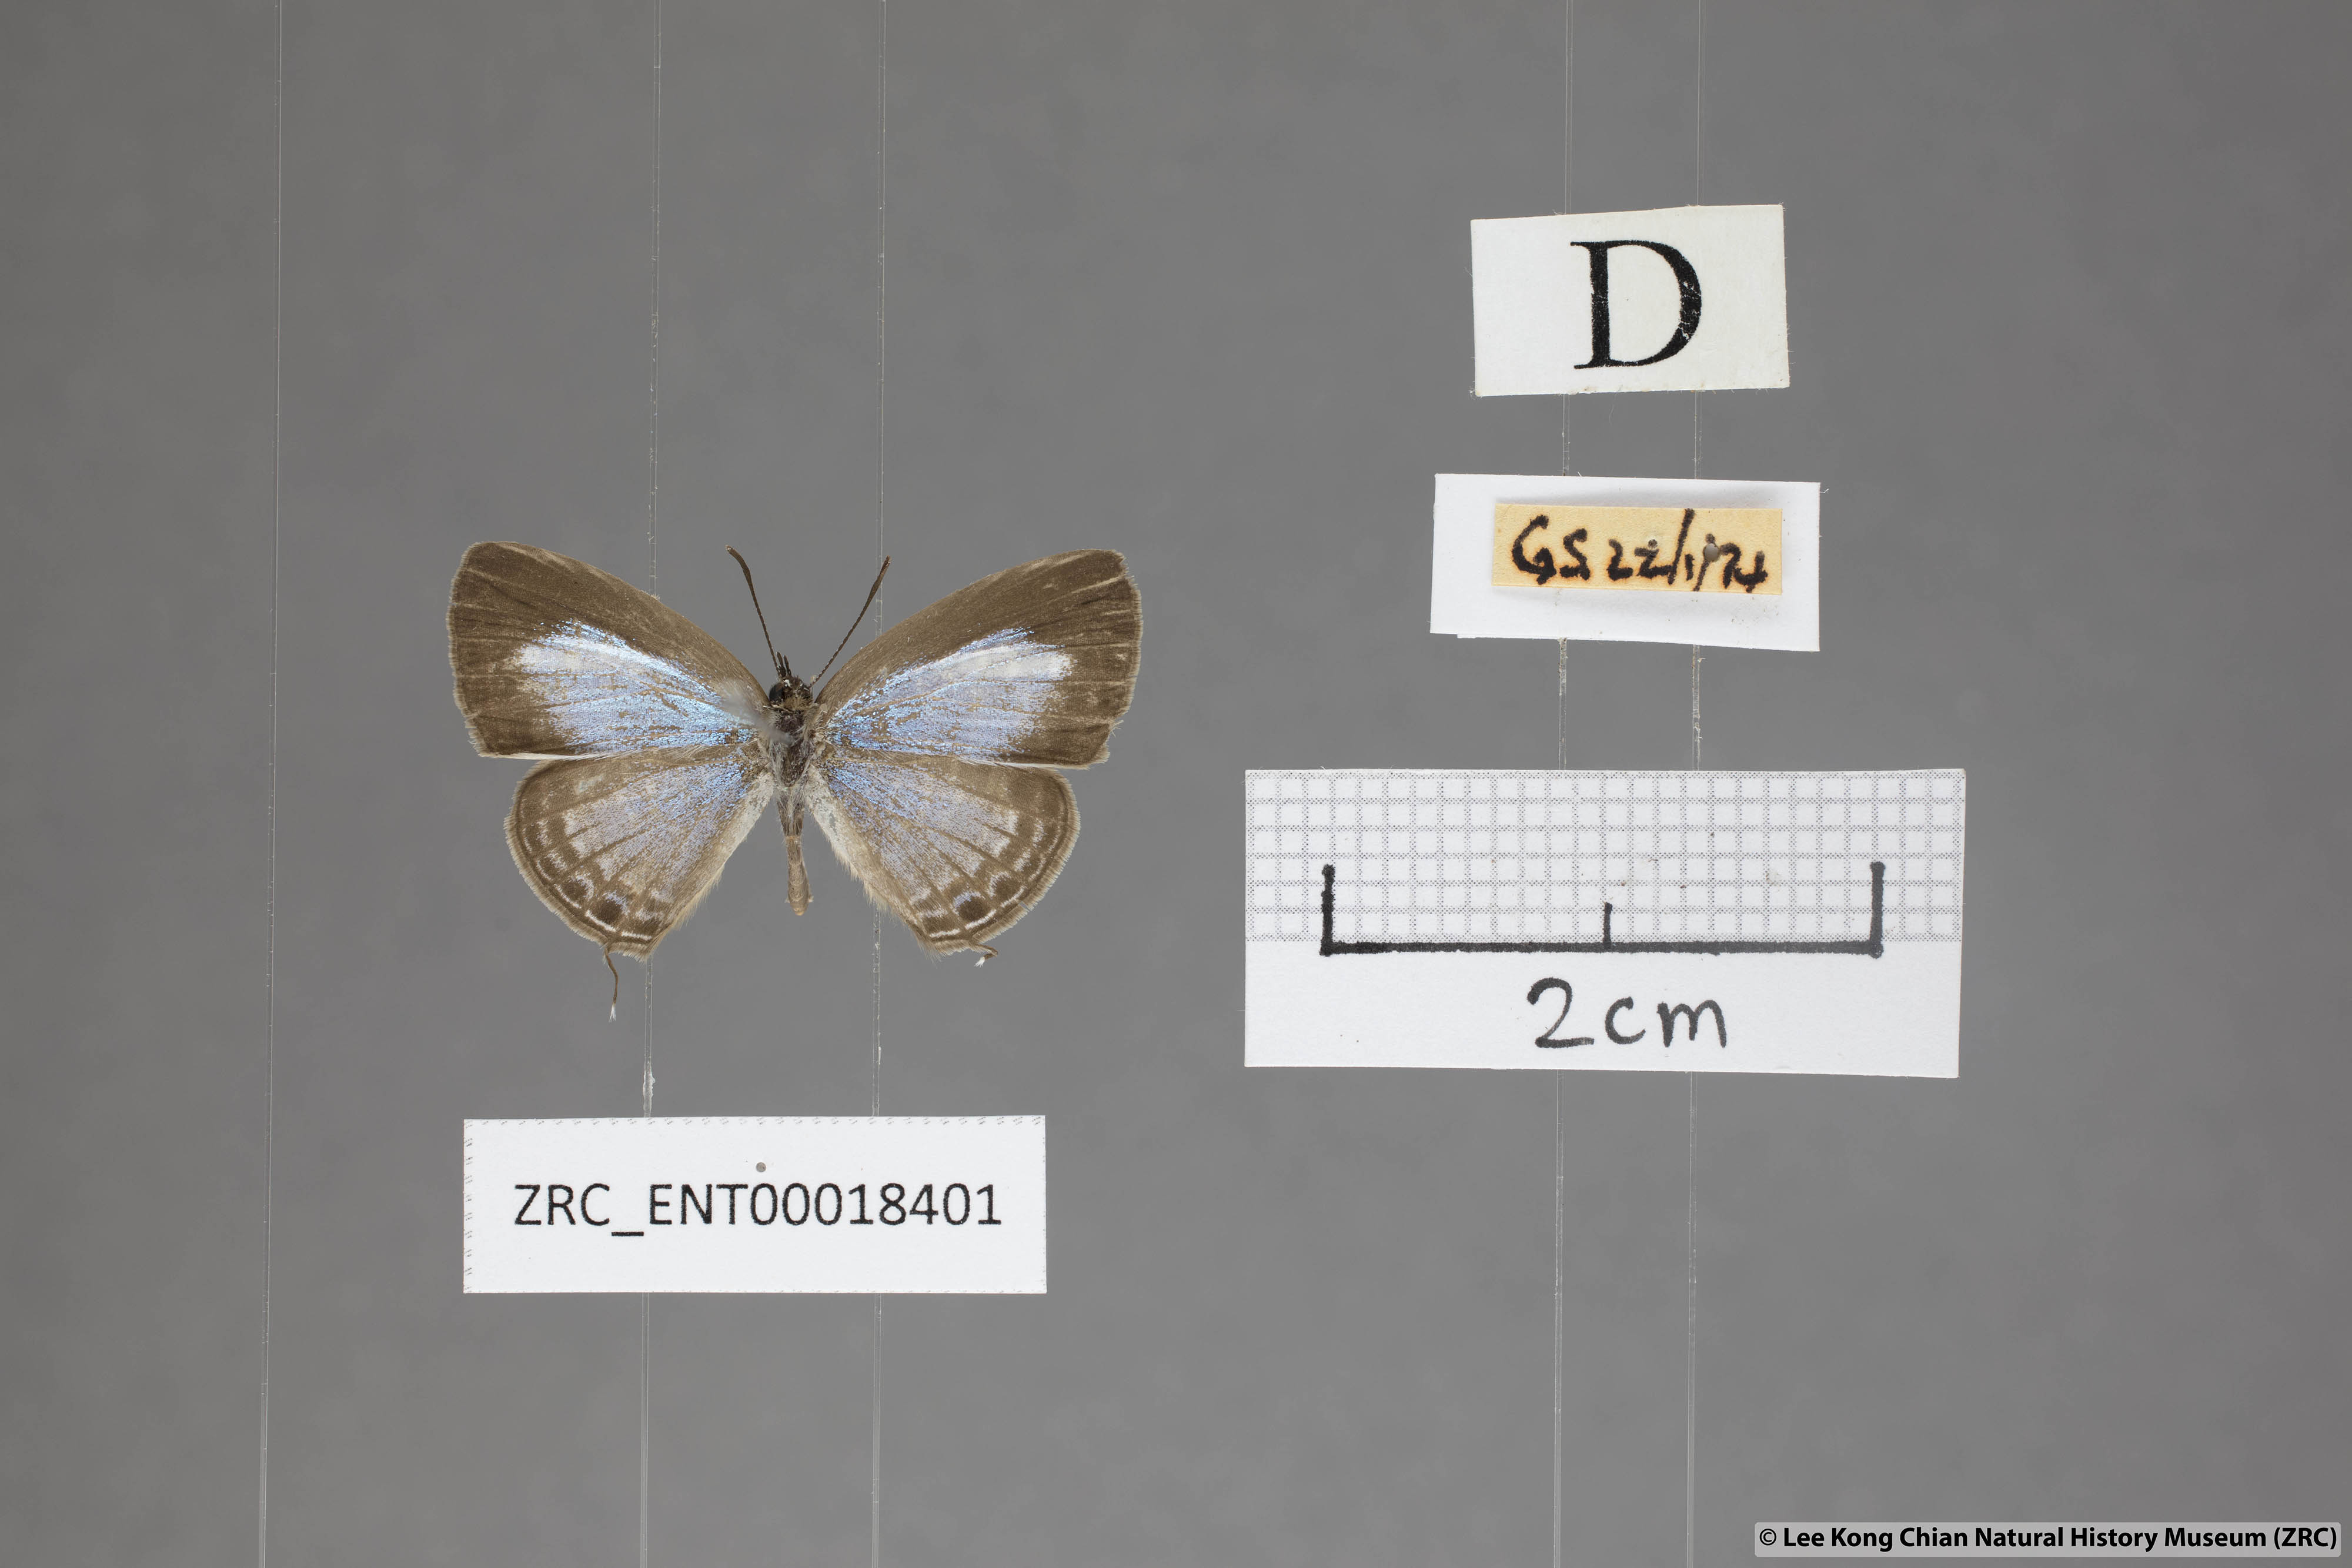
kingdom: Animalia
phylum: Arthropoda
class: Insecta
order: Lepidoptera
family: Lycaenidae
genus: Nacaduba
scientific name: Nacaduba kurava
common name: Transparent 6-line blue
